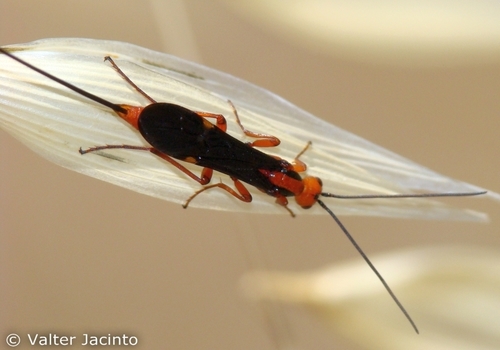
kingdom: Animalia
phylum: Arthropoda
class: Insecta
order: Hymenoptera
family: Braconidae
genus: Glyptomorpha
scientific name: Glyptomorpha pectoralis
